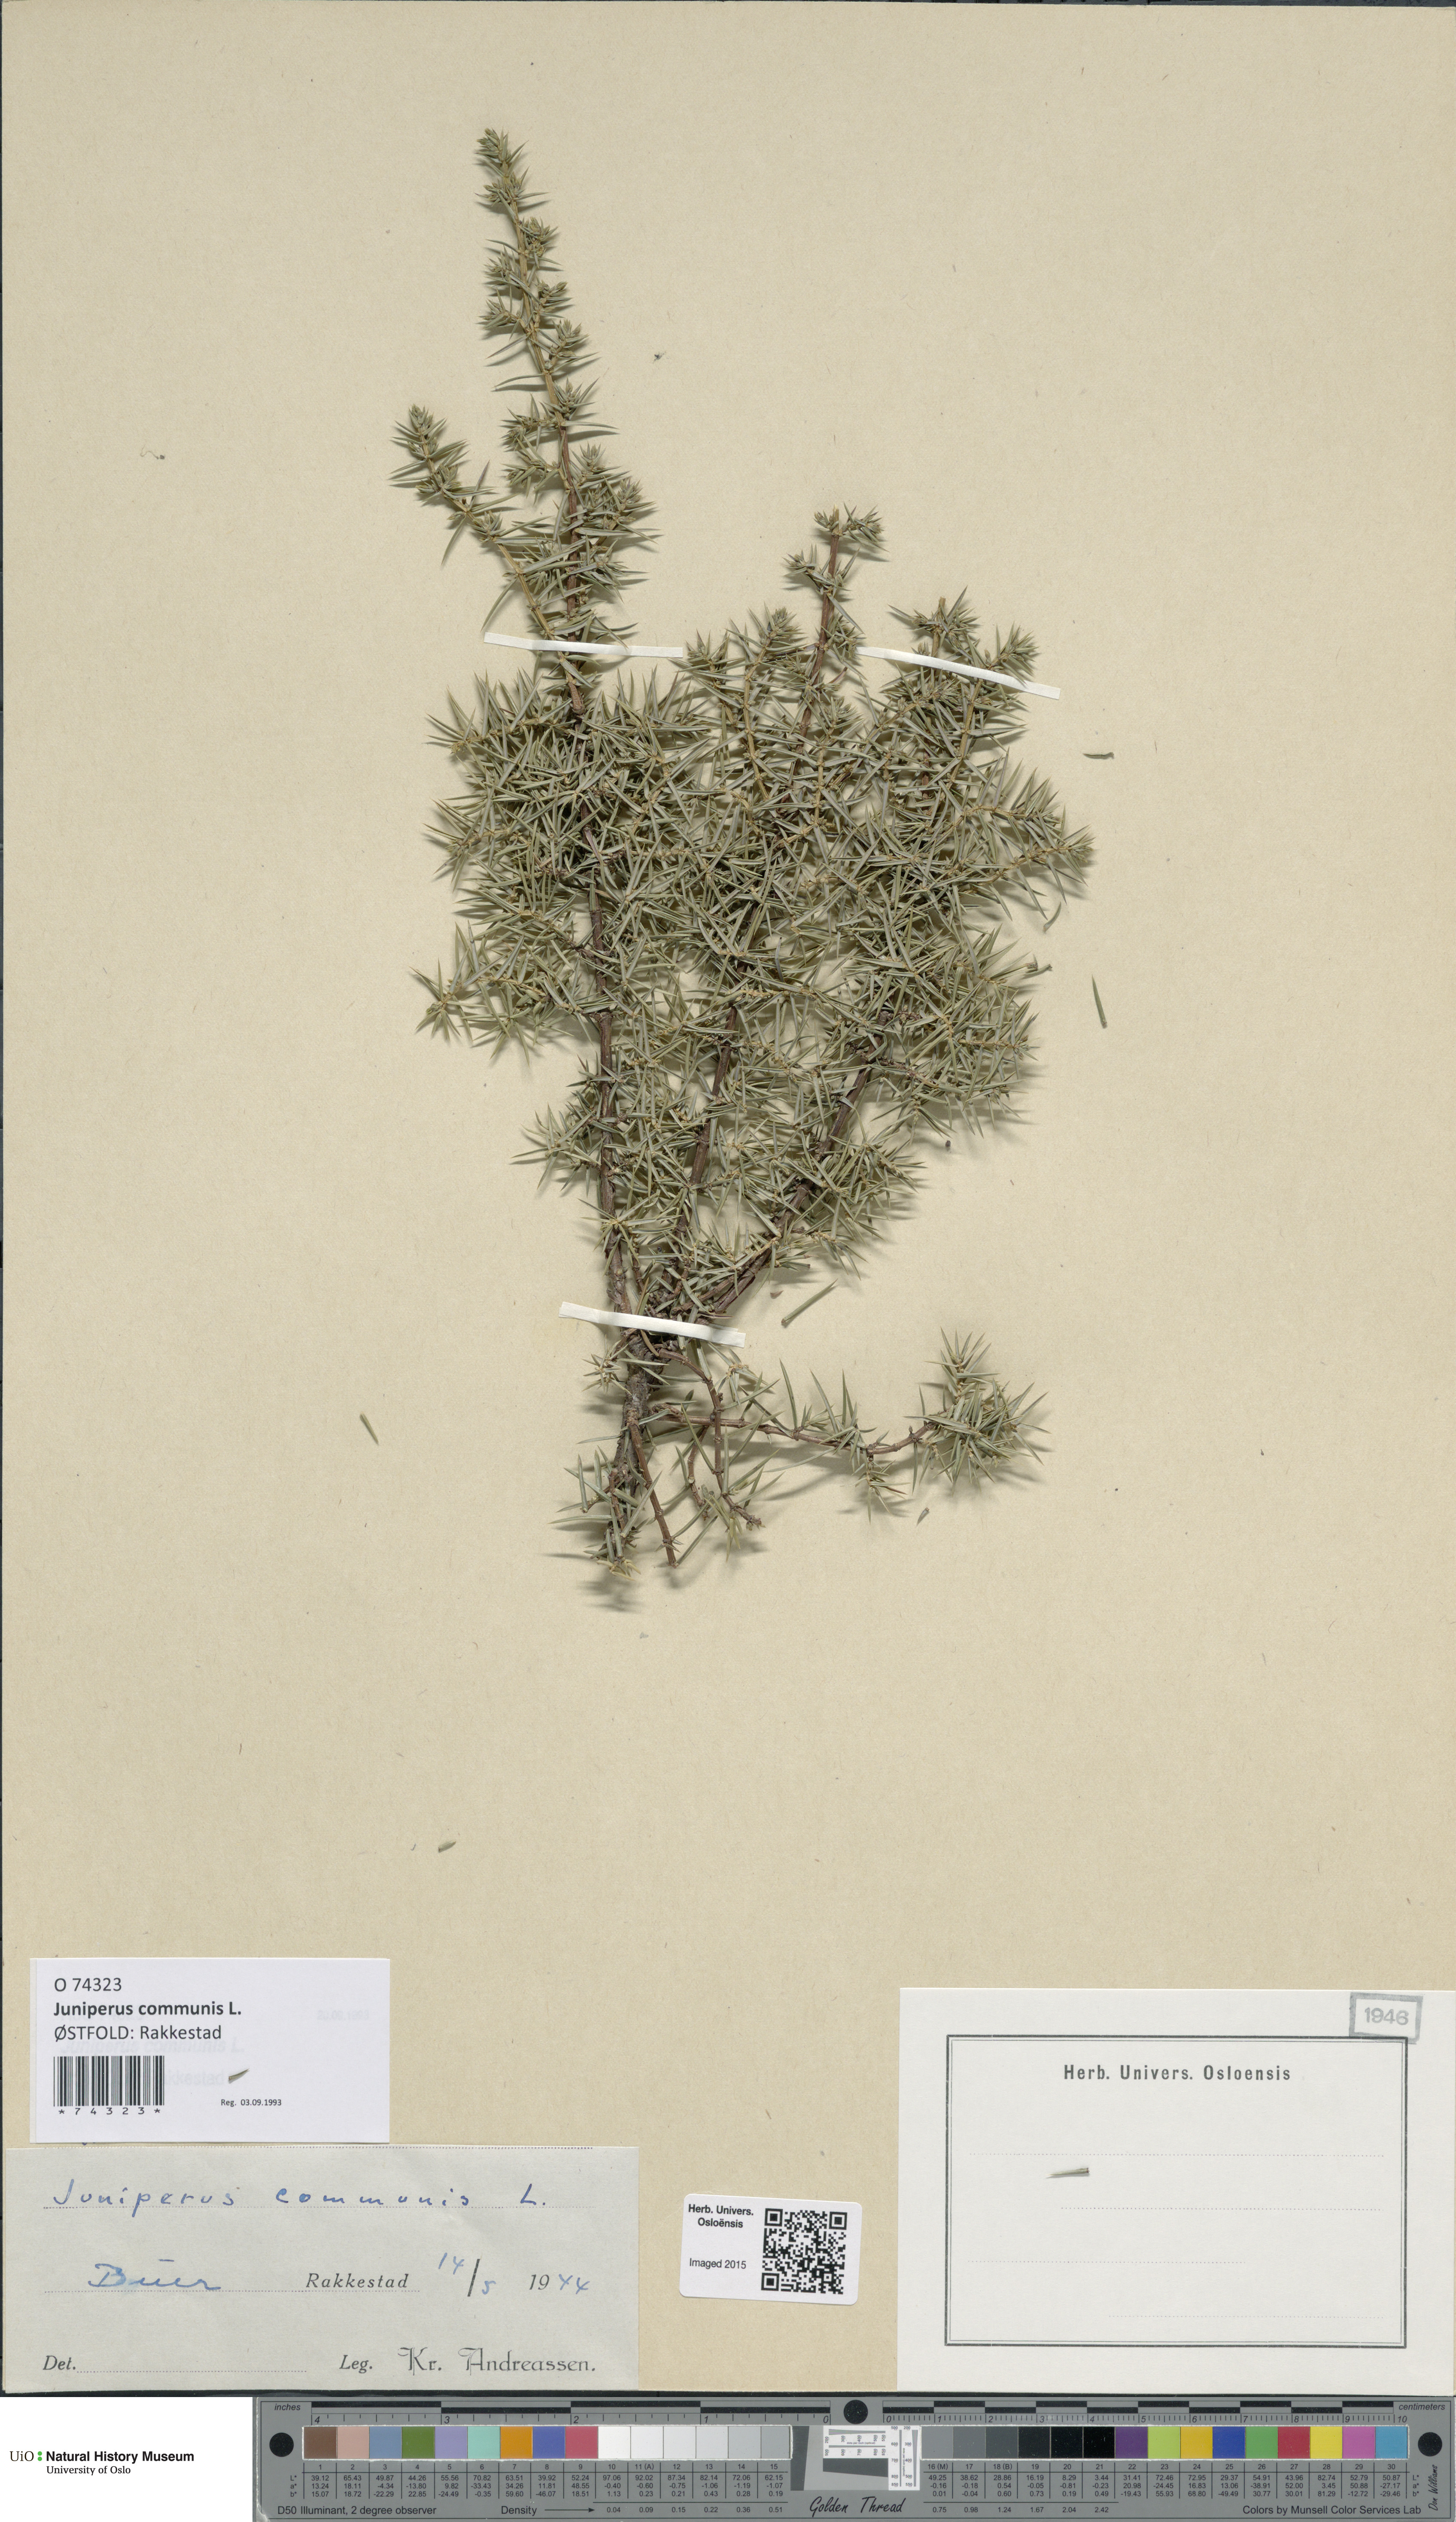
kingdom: Plantae
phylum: Tracheophyta
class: Pinopsida
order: Pinales
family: Cupressaceae
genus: Juniperus
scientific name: Juniperus communis
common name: Common juniper
